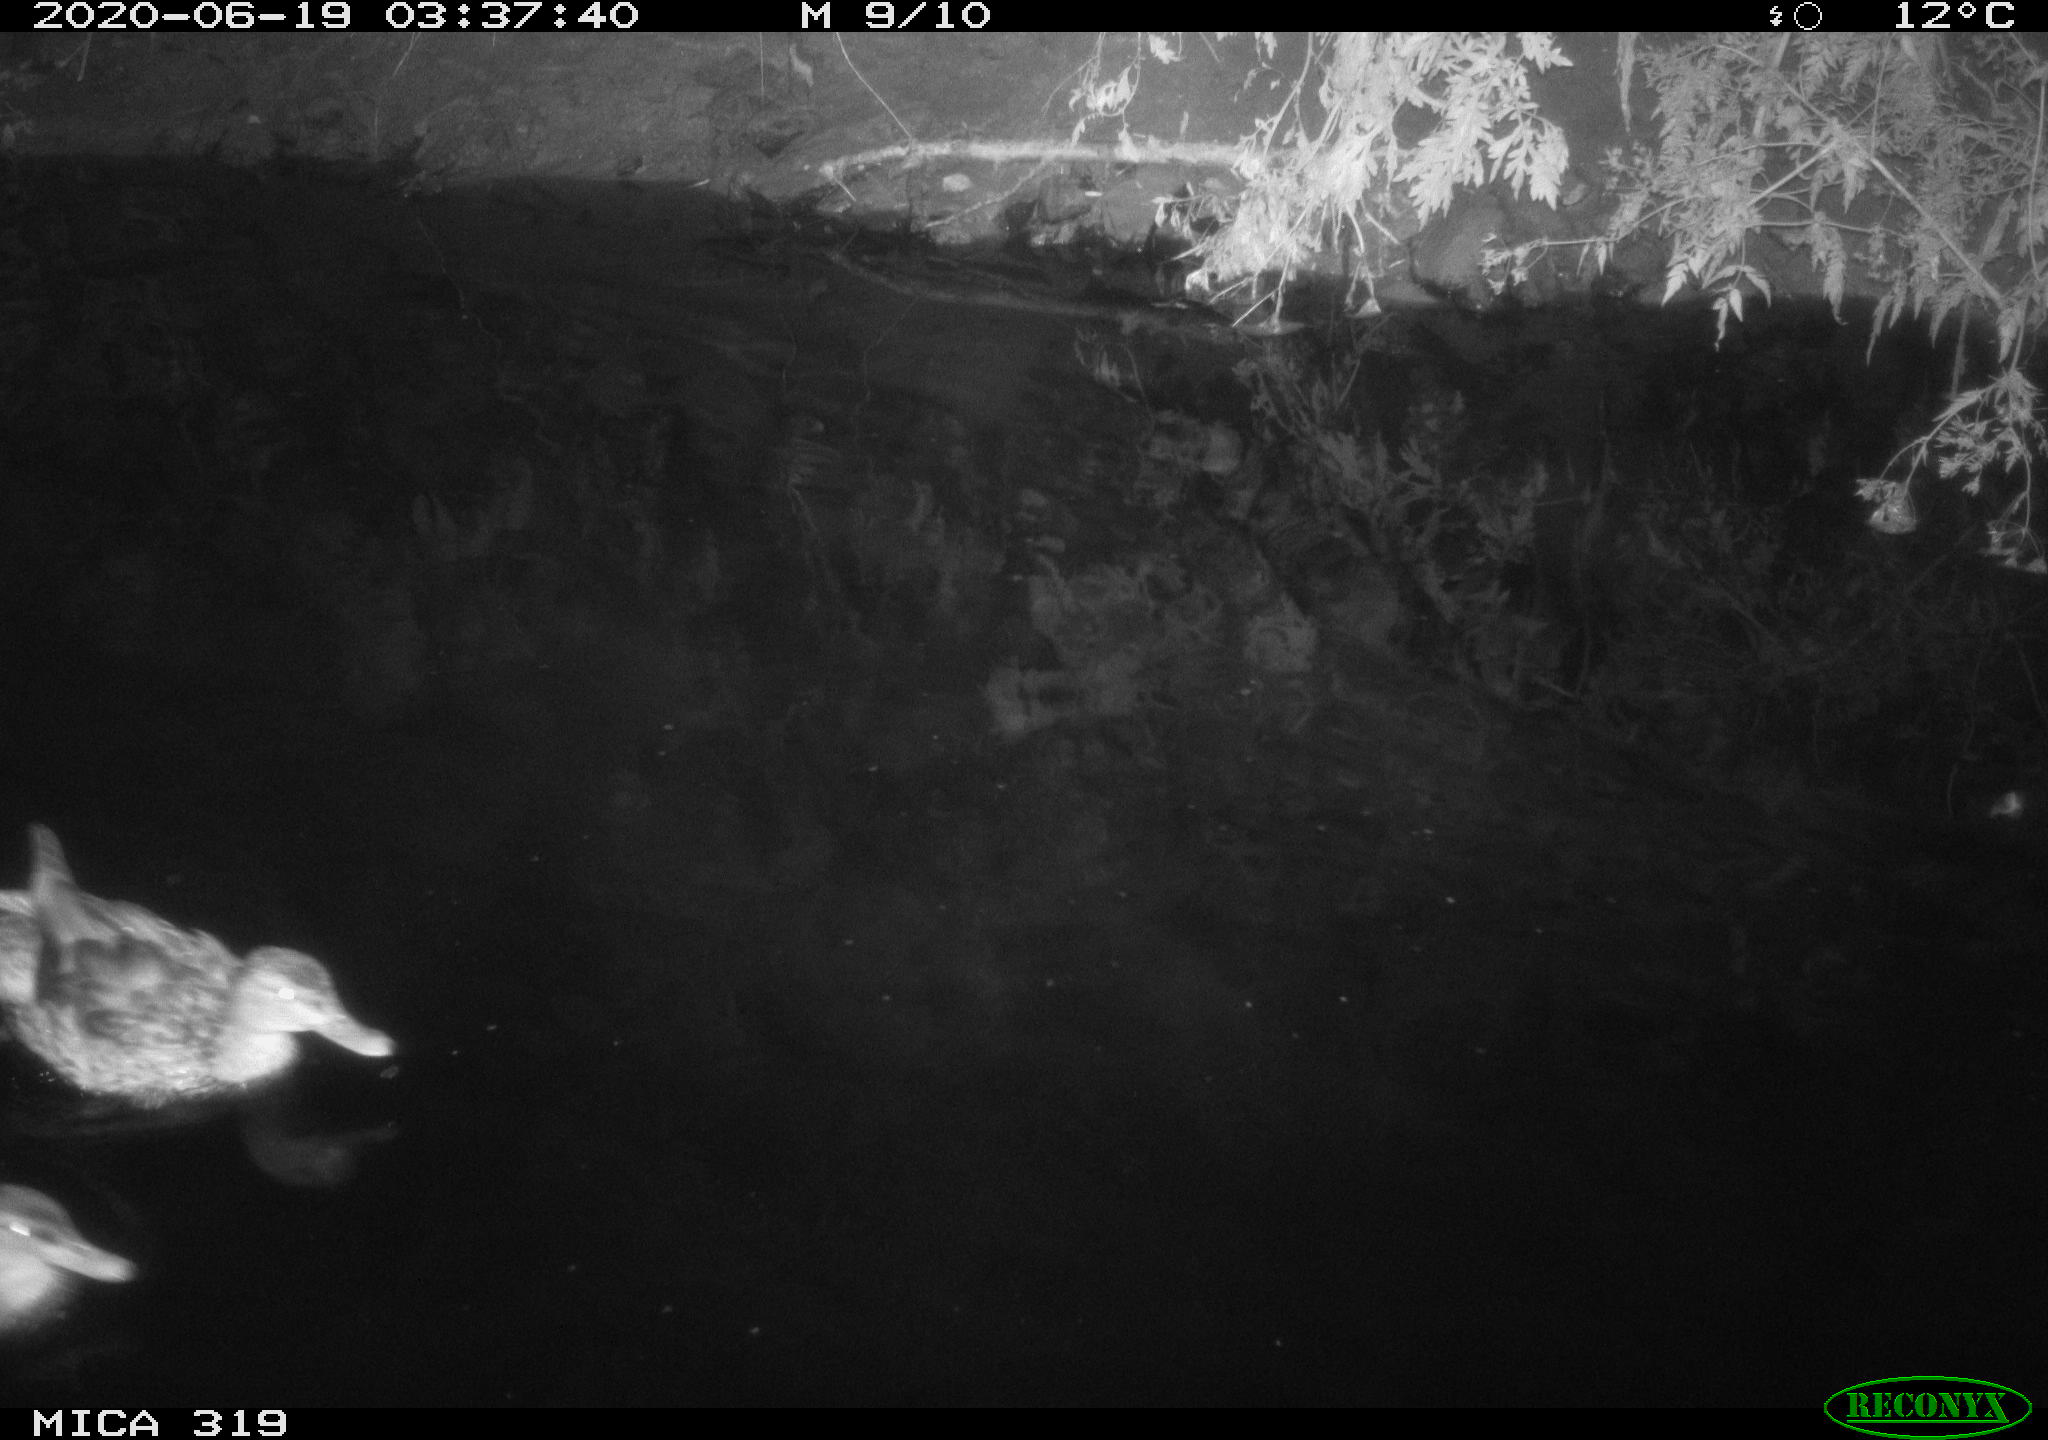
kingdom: Animalia
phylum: Chordata
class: Aves
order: Anseriformes
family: Anatidae
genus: Anas
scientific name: Anas platyrhynchos
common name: Mallard
